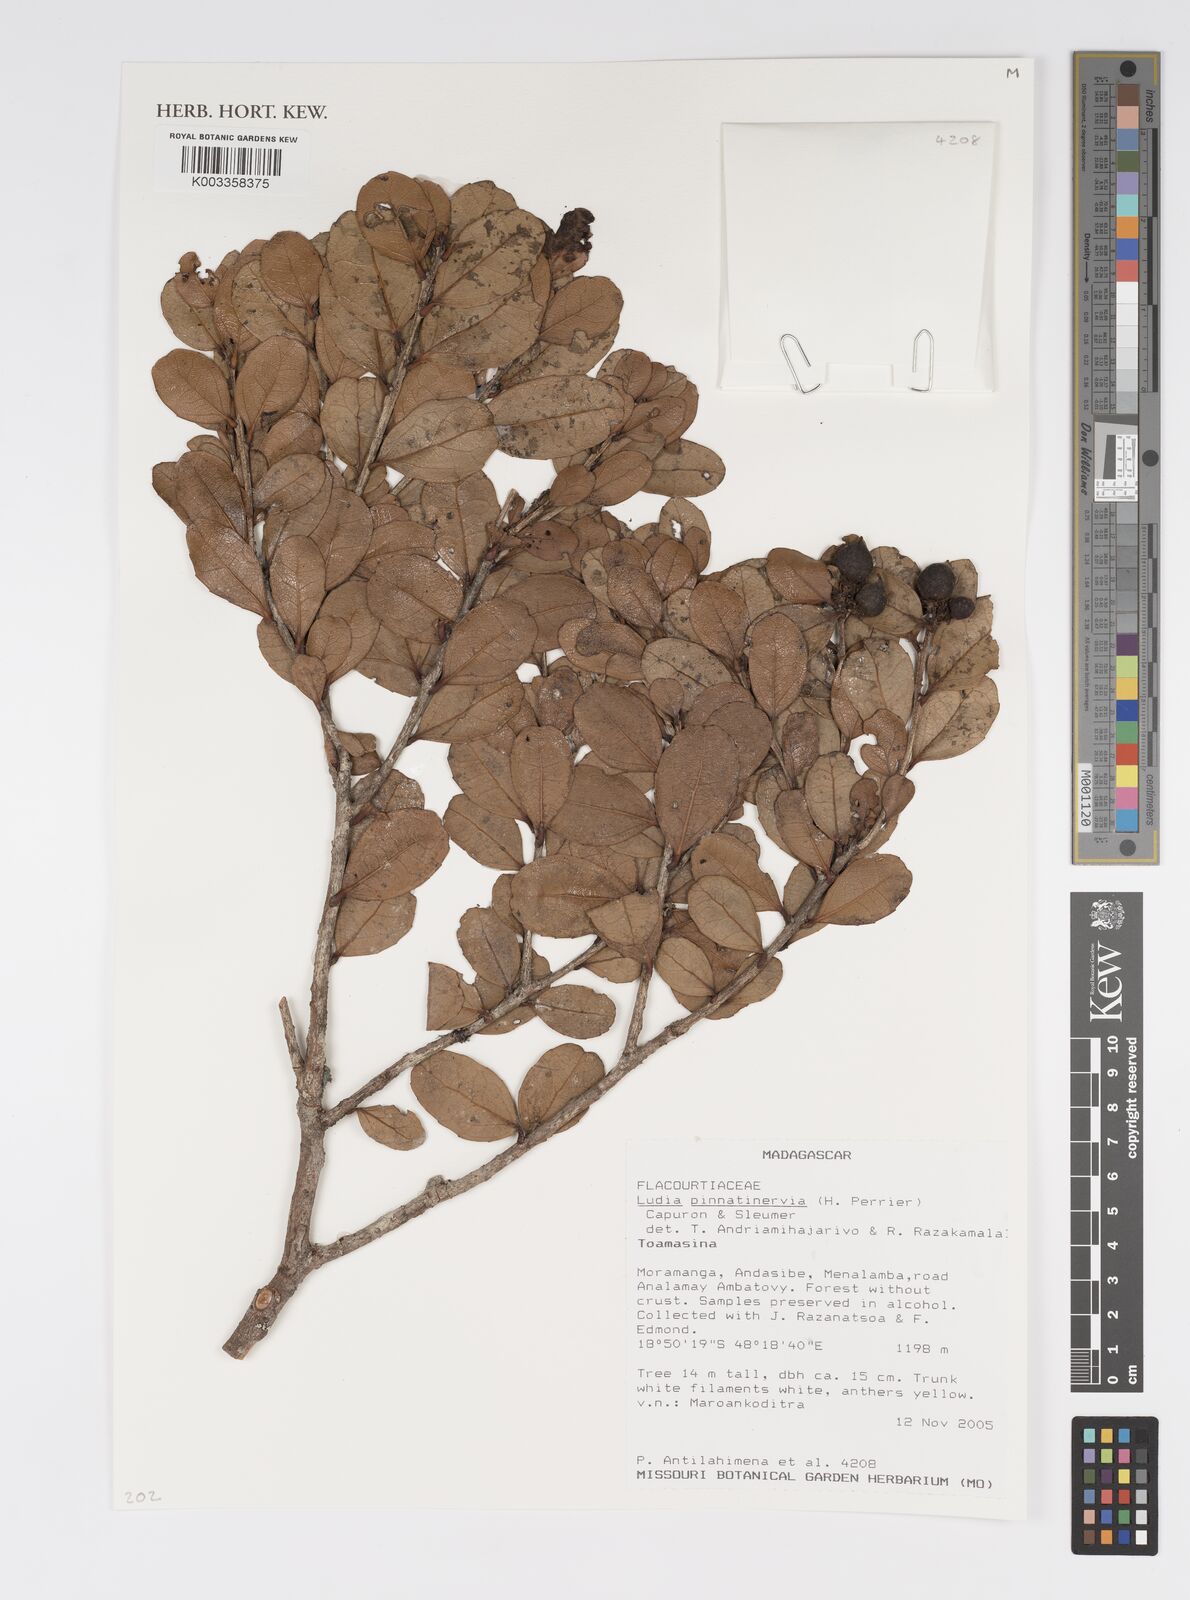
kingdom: Plantae
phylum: Tracheophyta
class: Magnoliopsida
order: Malpighiales
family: Salicaceae
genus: Ludia
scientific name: Ludia pinnatinervia
